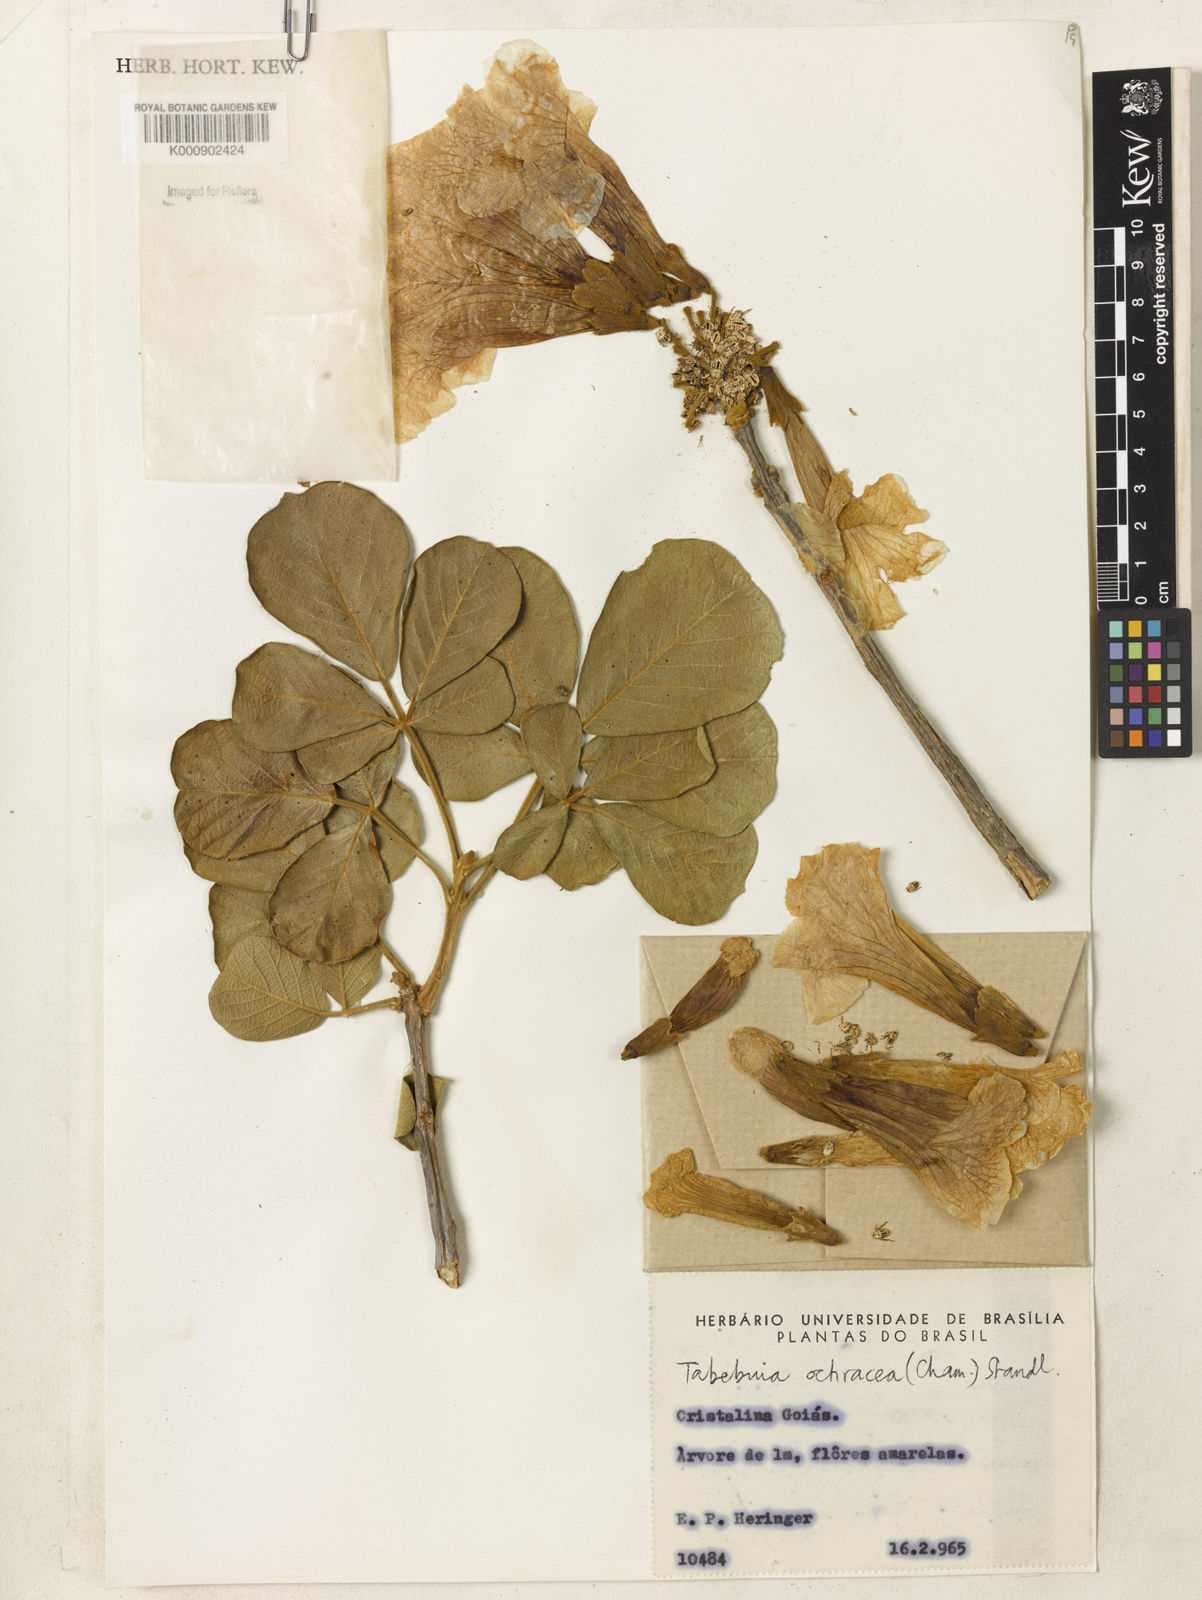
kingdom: Plantae
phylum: Tracheophyta
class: Magnoliopsida
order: Lamiales
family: Bignoniaceae
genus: Handroanthus
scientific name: Handroanthus ochraceus
